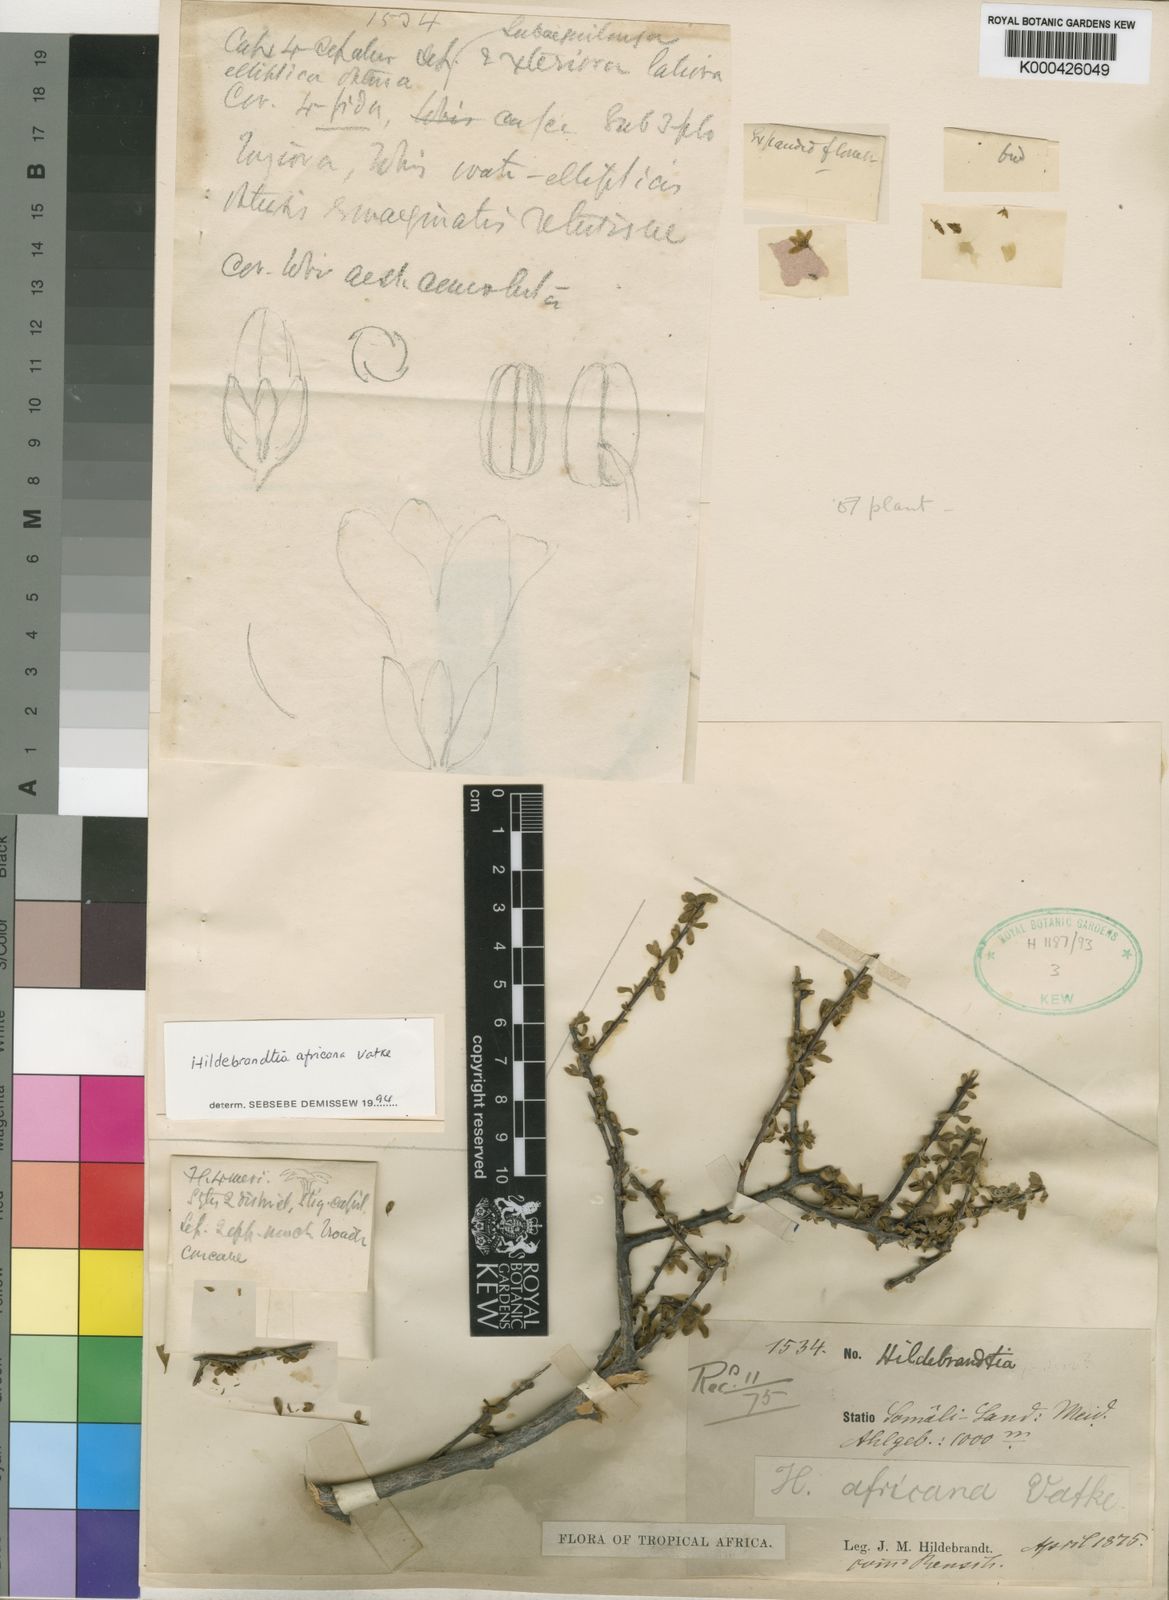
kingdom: Plantae
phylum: Tracheophyta
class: Magnoliopsida
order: Solanales
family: Convolvulaceae
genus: Hildebrandtia
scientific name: Hildebrandtia africana
